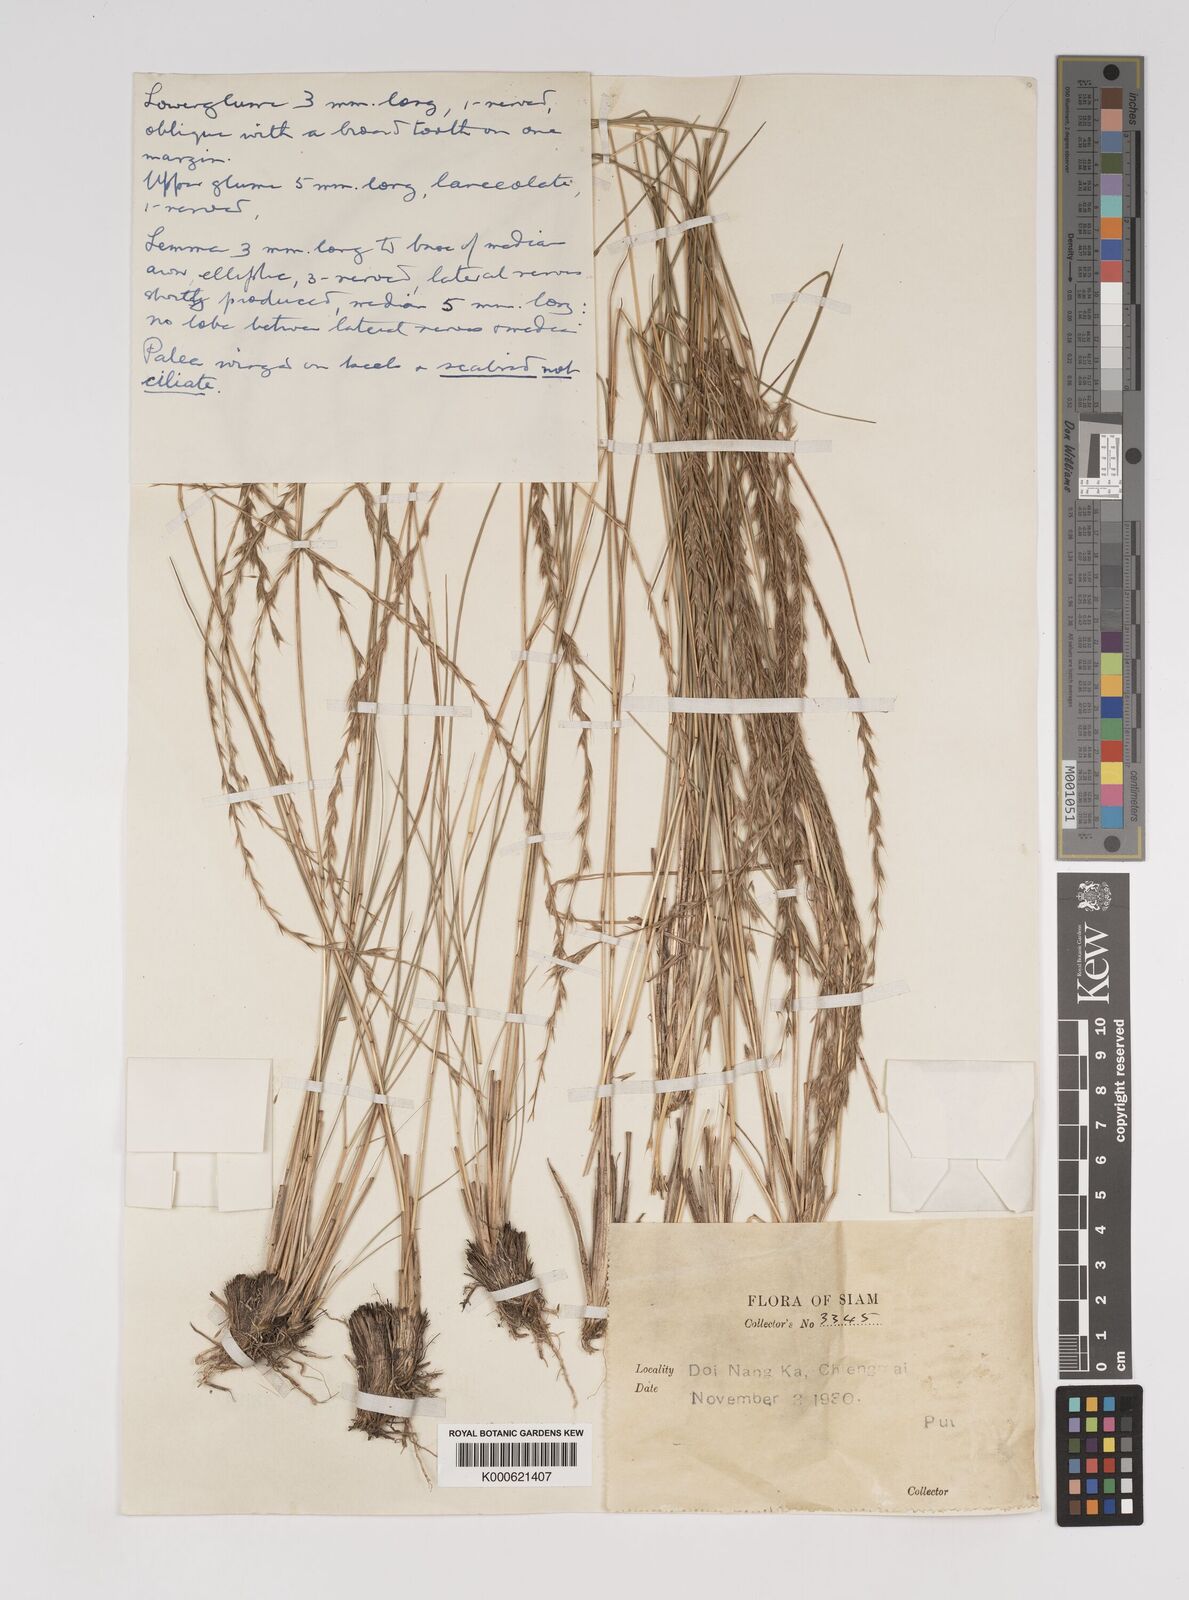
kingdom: Plantae
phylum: Tracheophyta
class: Liliopsida
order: Poales
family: Poaceae
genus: Tripogon
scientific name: Tripogon
